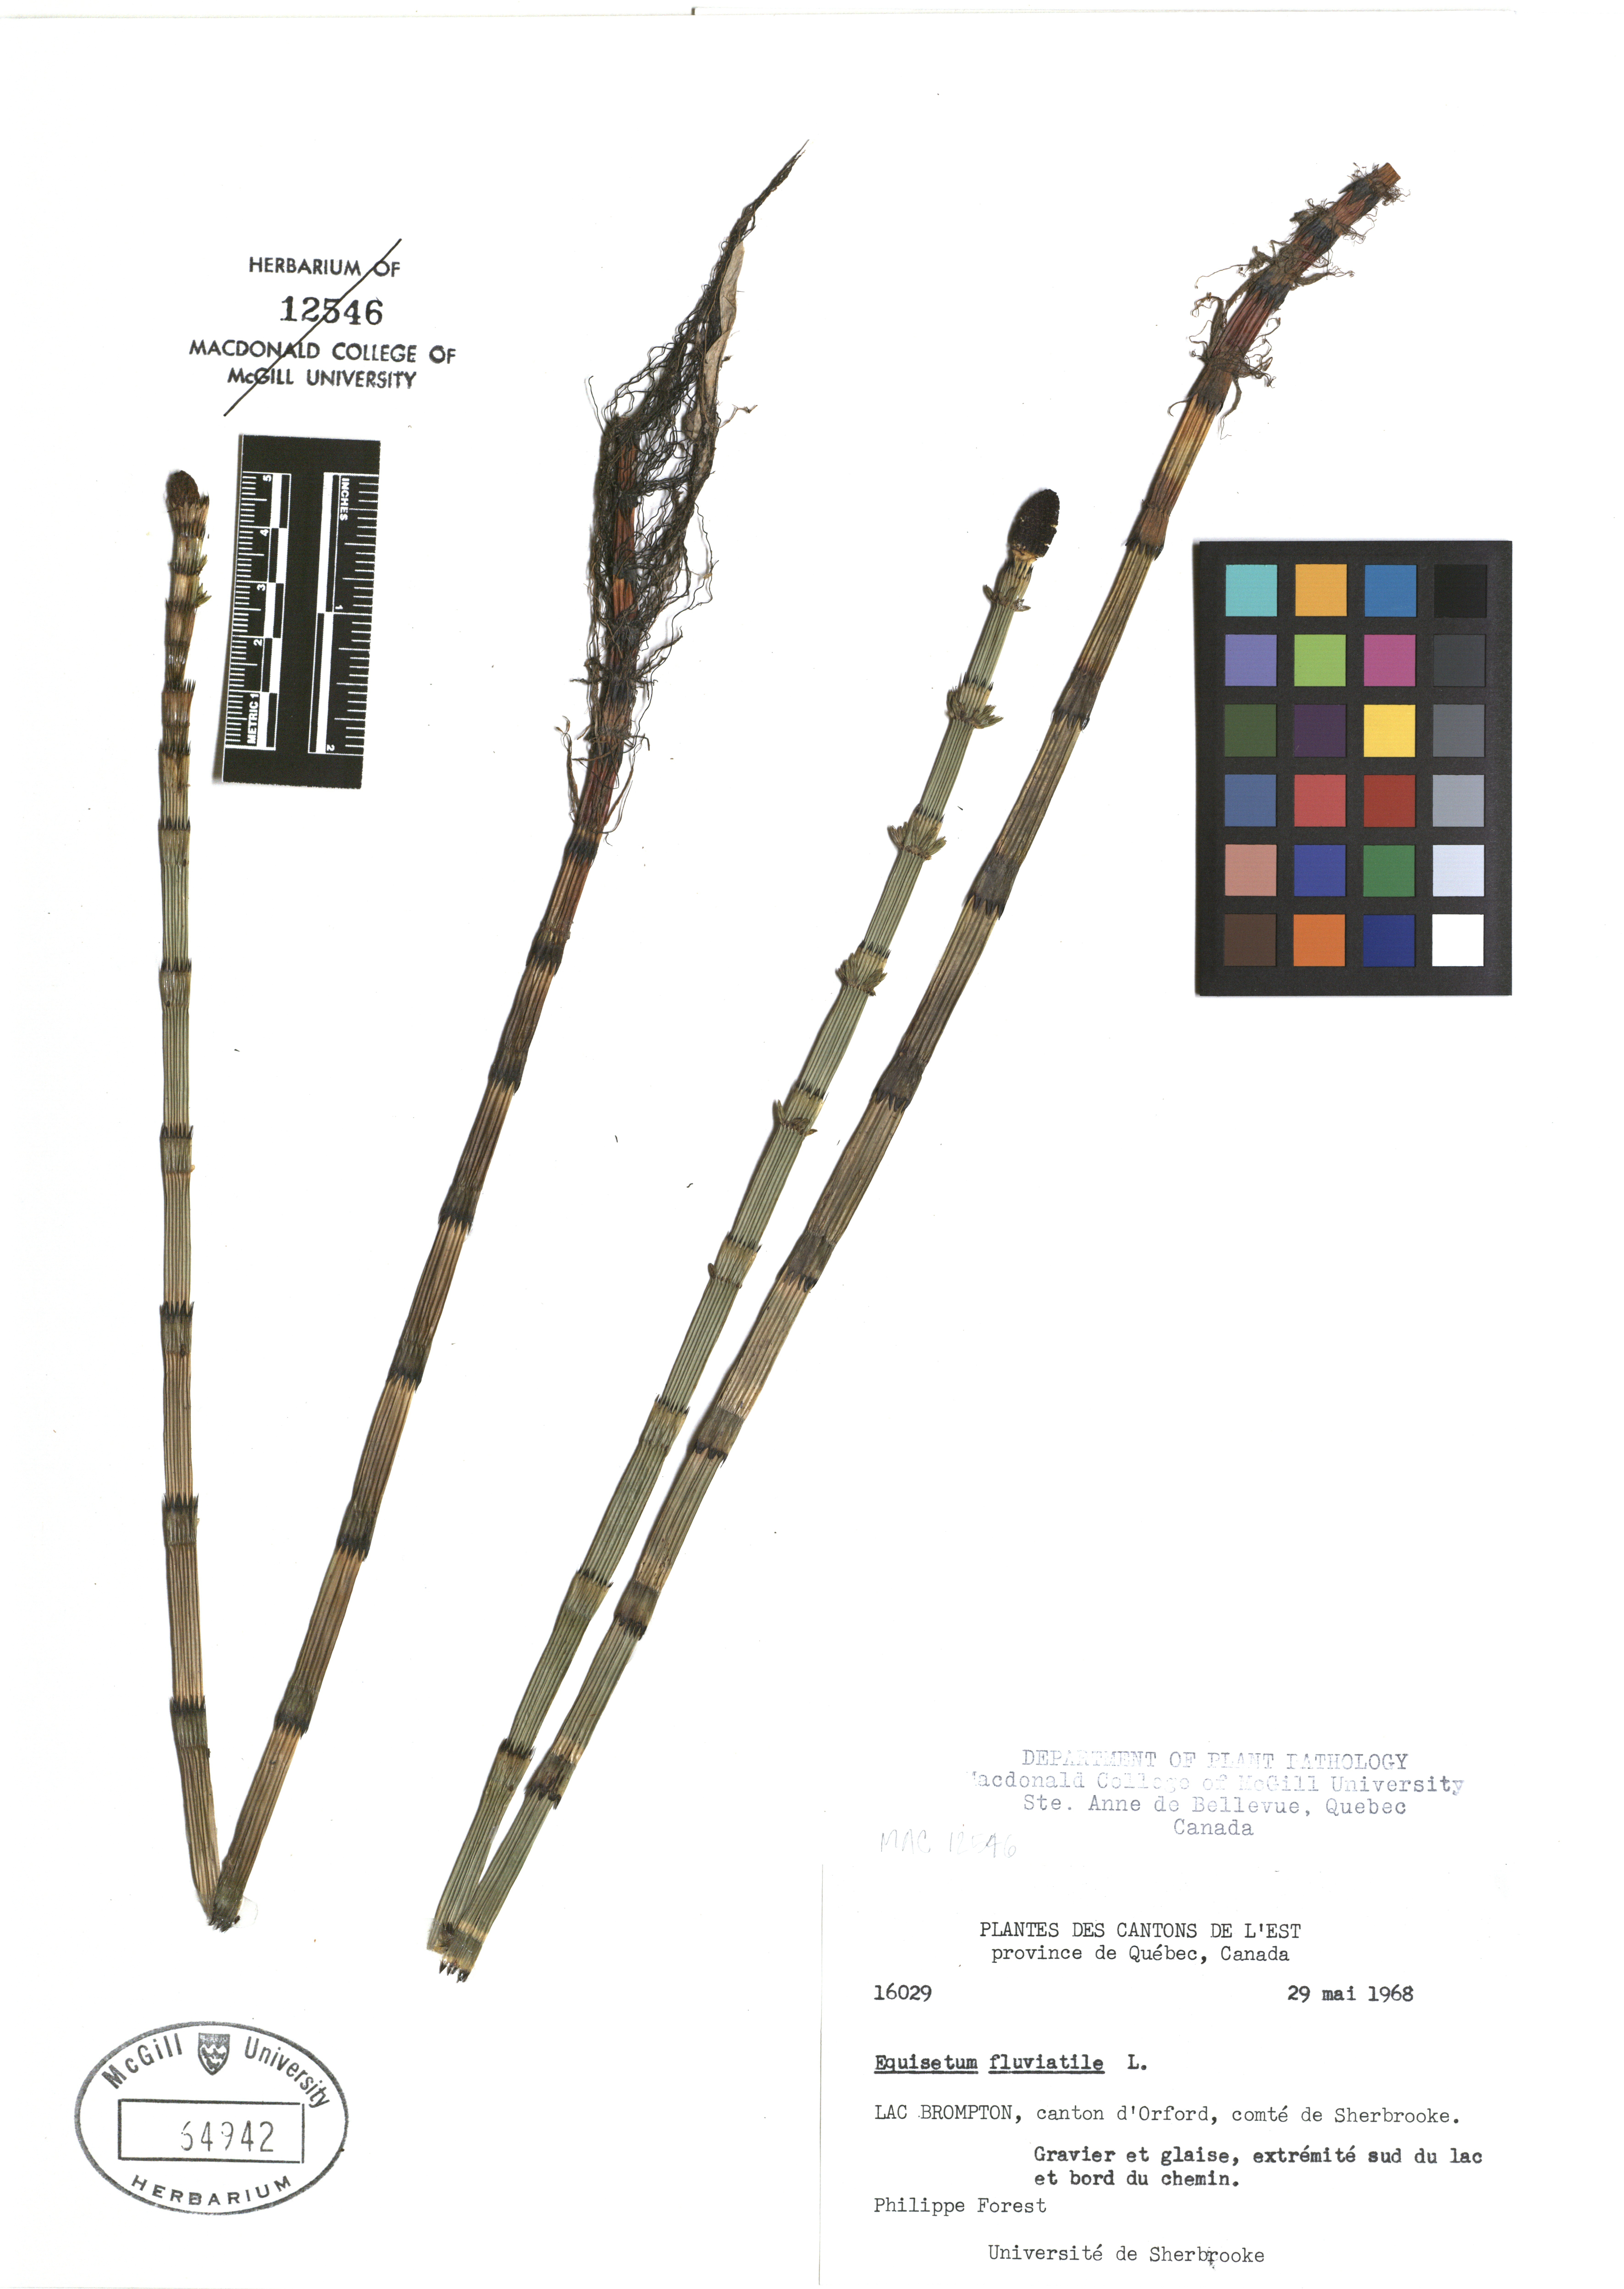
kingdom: Plantae
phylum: Tracheophyta
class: Polypodiopsida
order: Equisetales
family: Equisetaceae
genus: Equisetum
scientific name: Equisetum fluviatile
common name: Water horsetail
